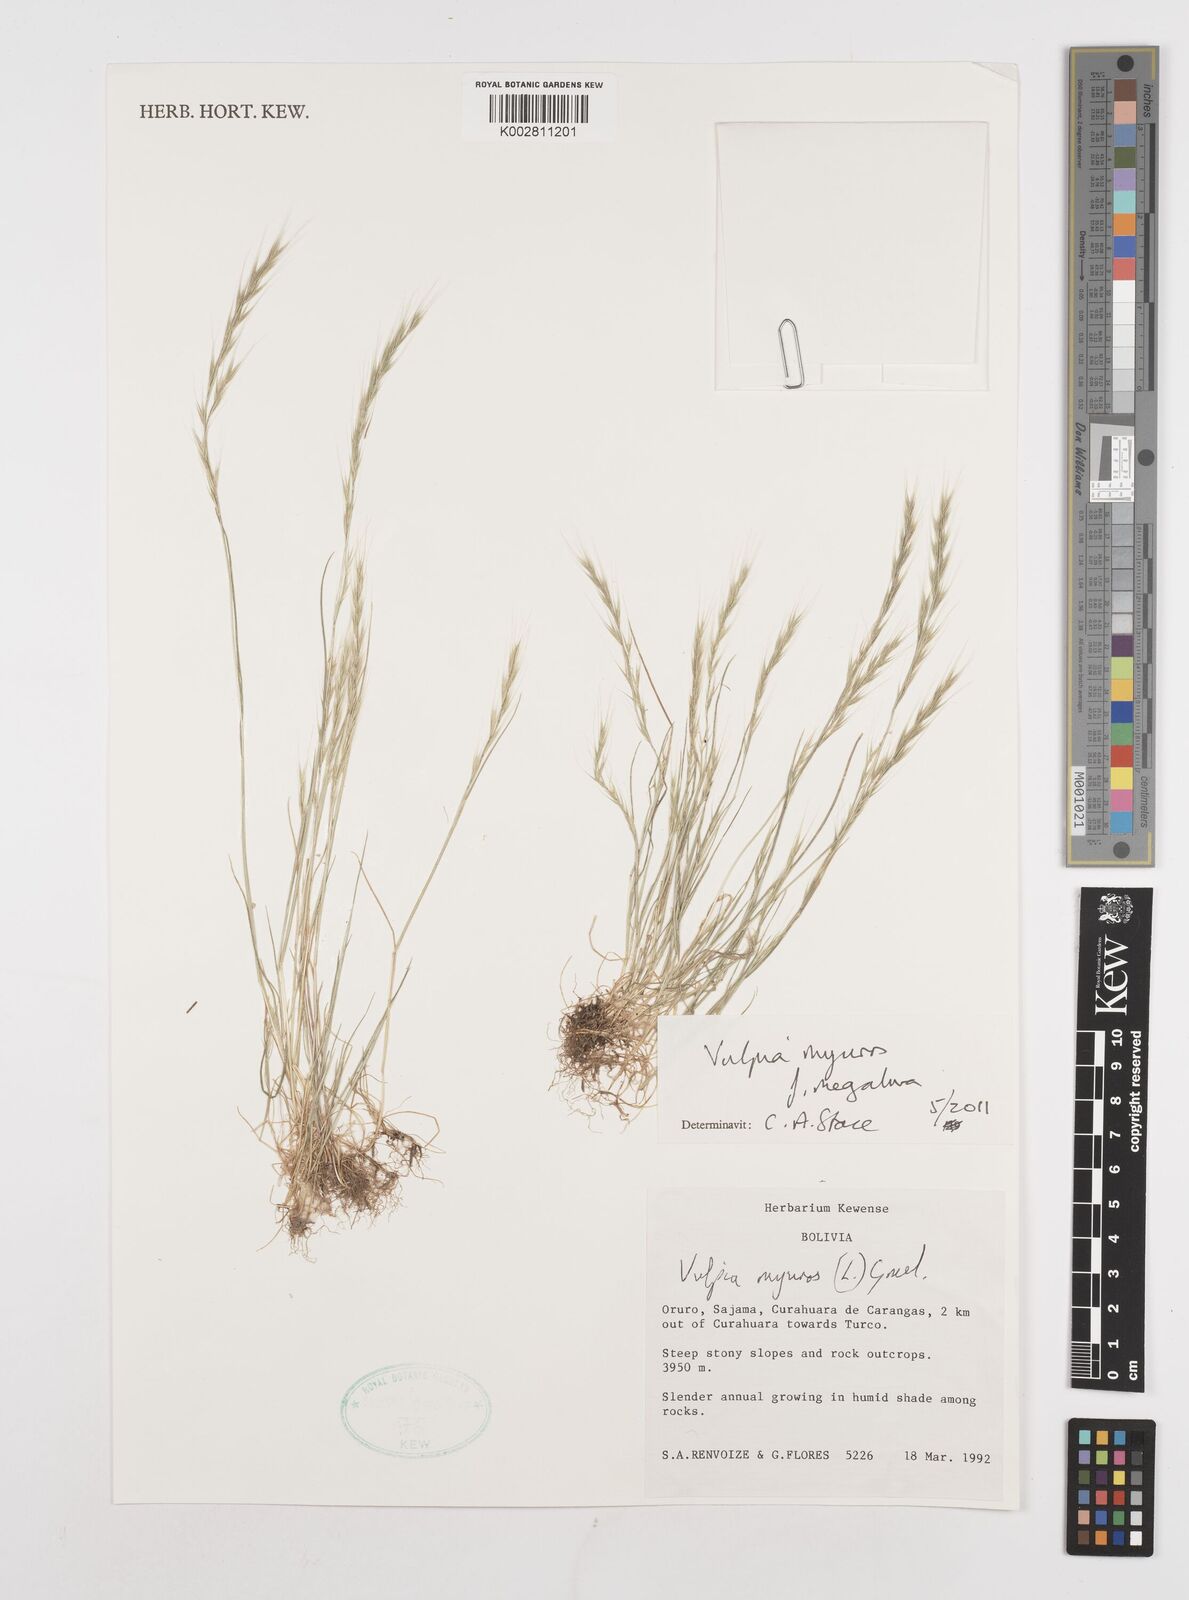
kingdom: Plantae
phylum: Tracheophyta
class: Liliopsida
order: Poales
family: Poaceae
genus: Festuca
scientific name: Festuca myuros
